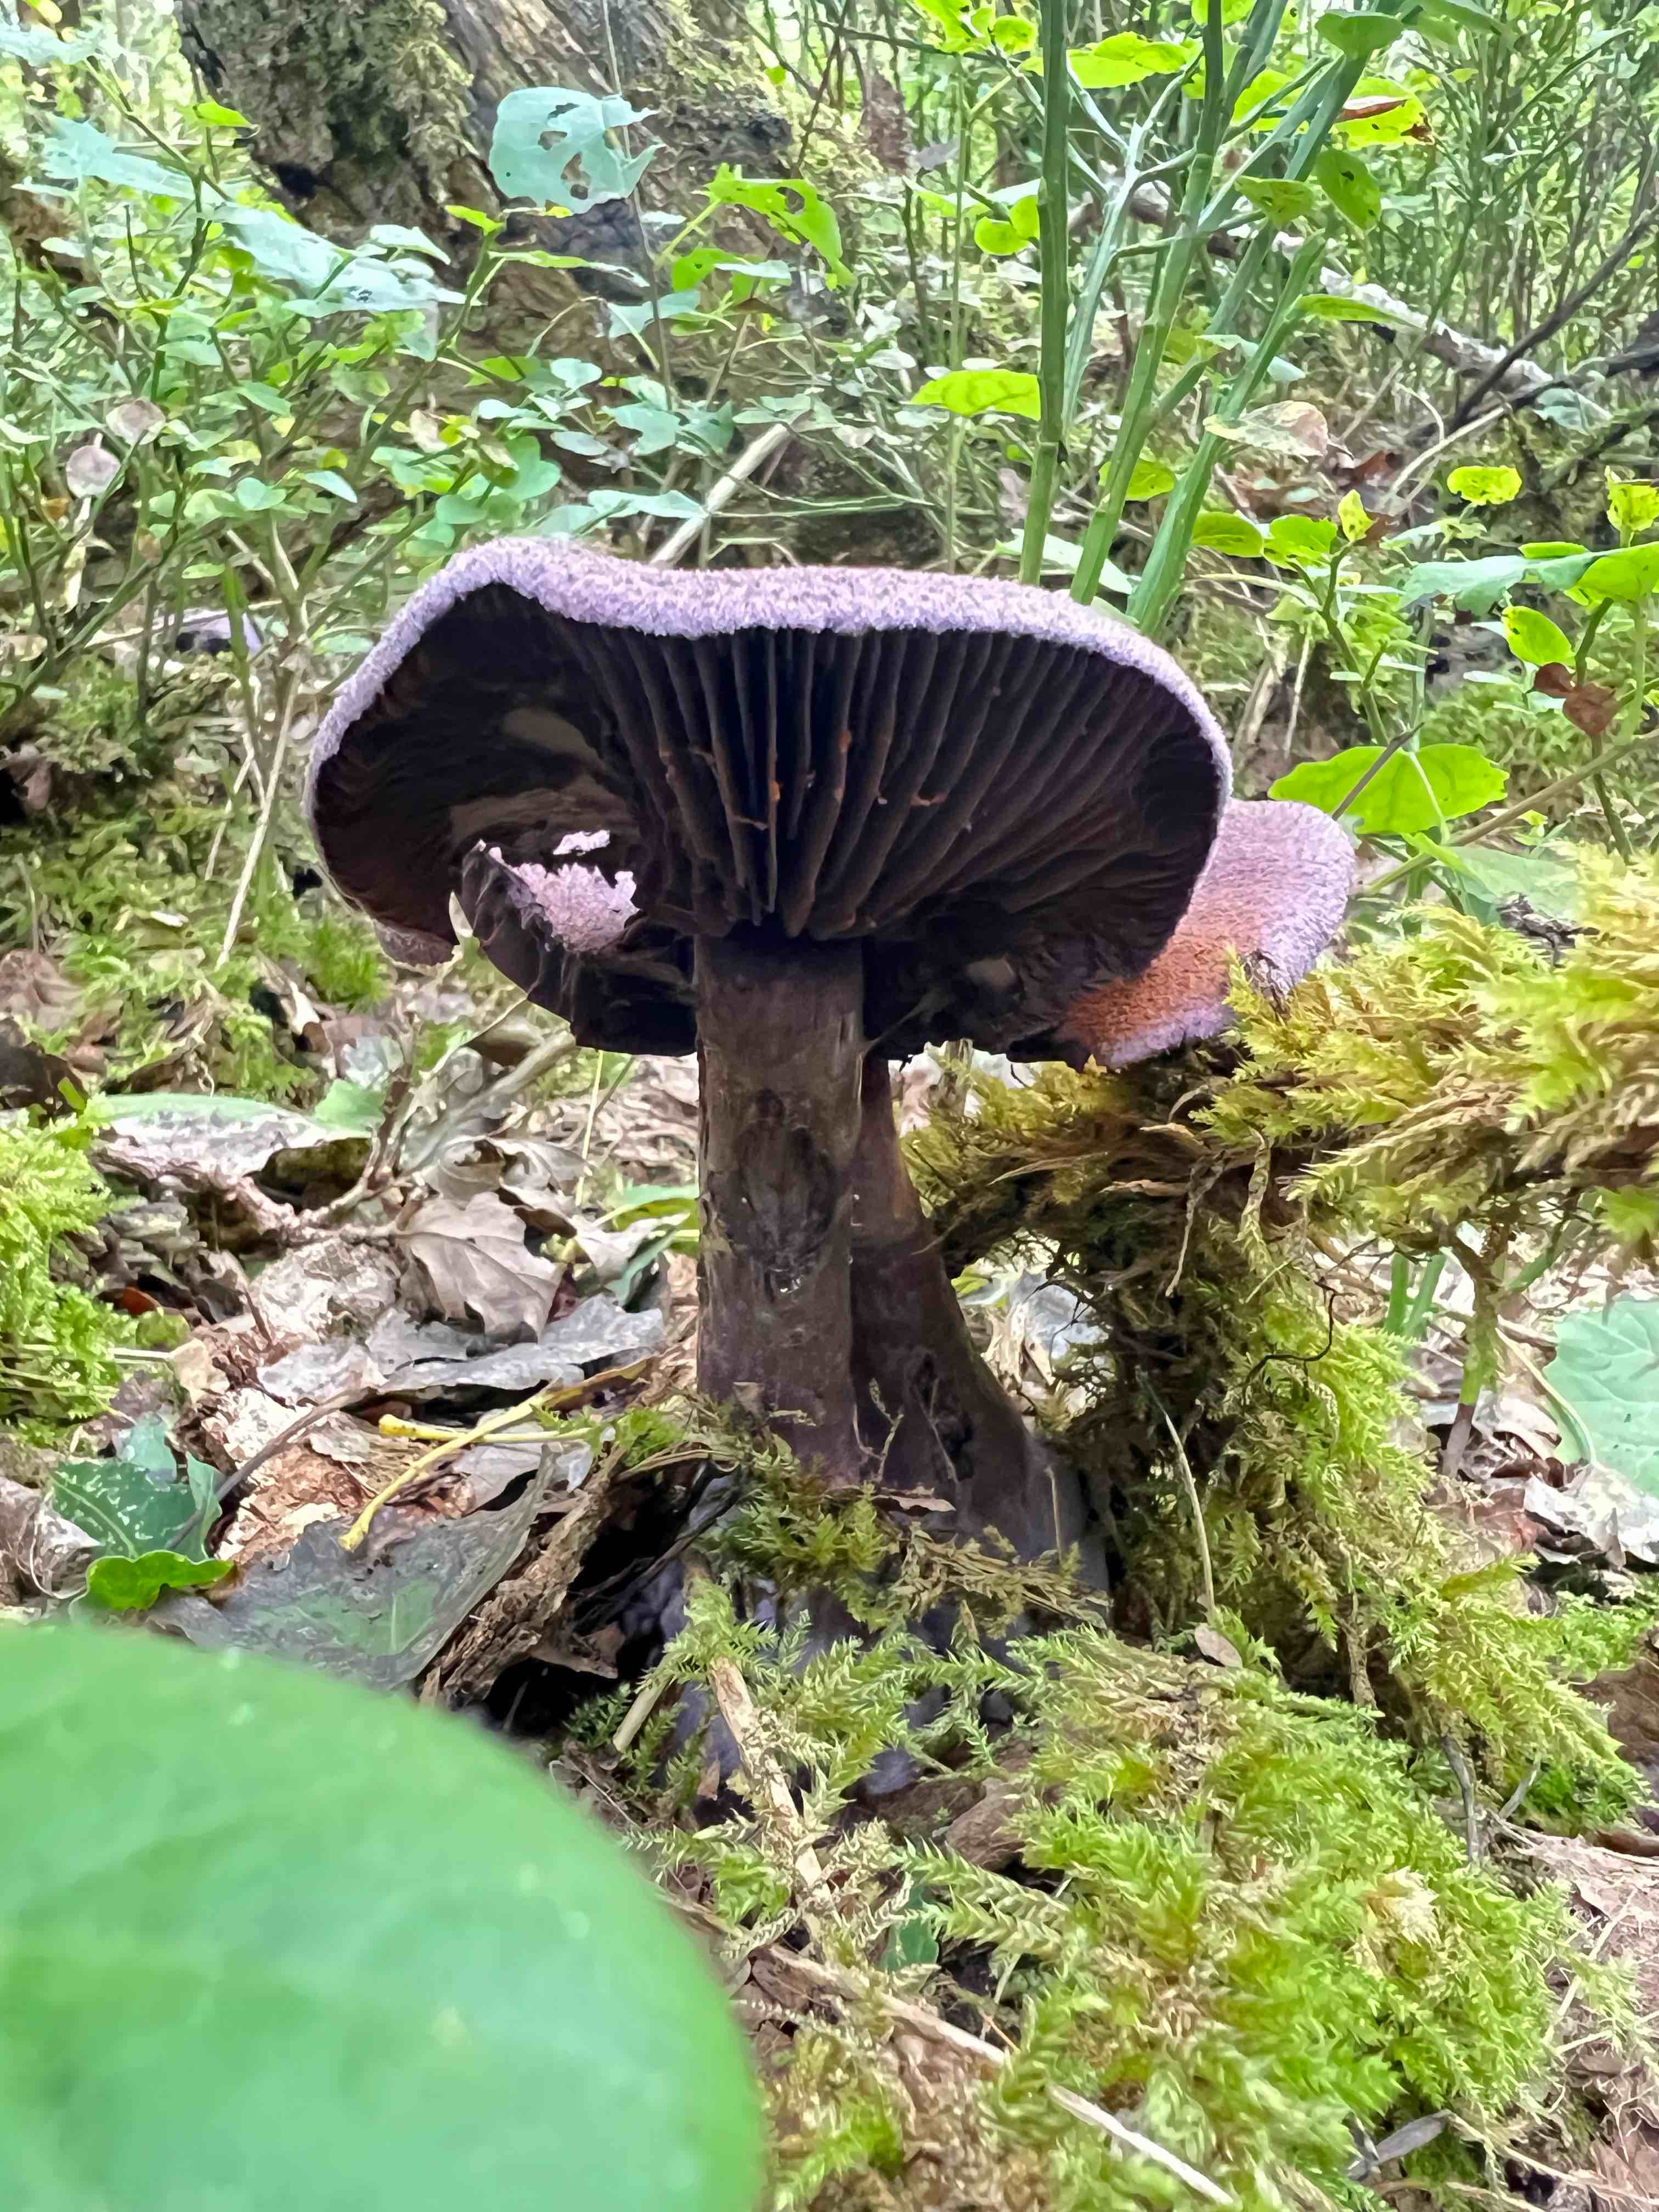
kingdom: Fungi
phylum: Basidiomycota
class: Agaricomycetes
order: Agaricales
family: Cortinariaceae
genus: Cortinarius
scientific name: Cortinarius violaceus
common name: mørkviolet slørhat
